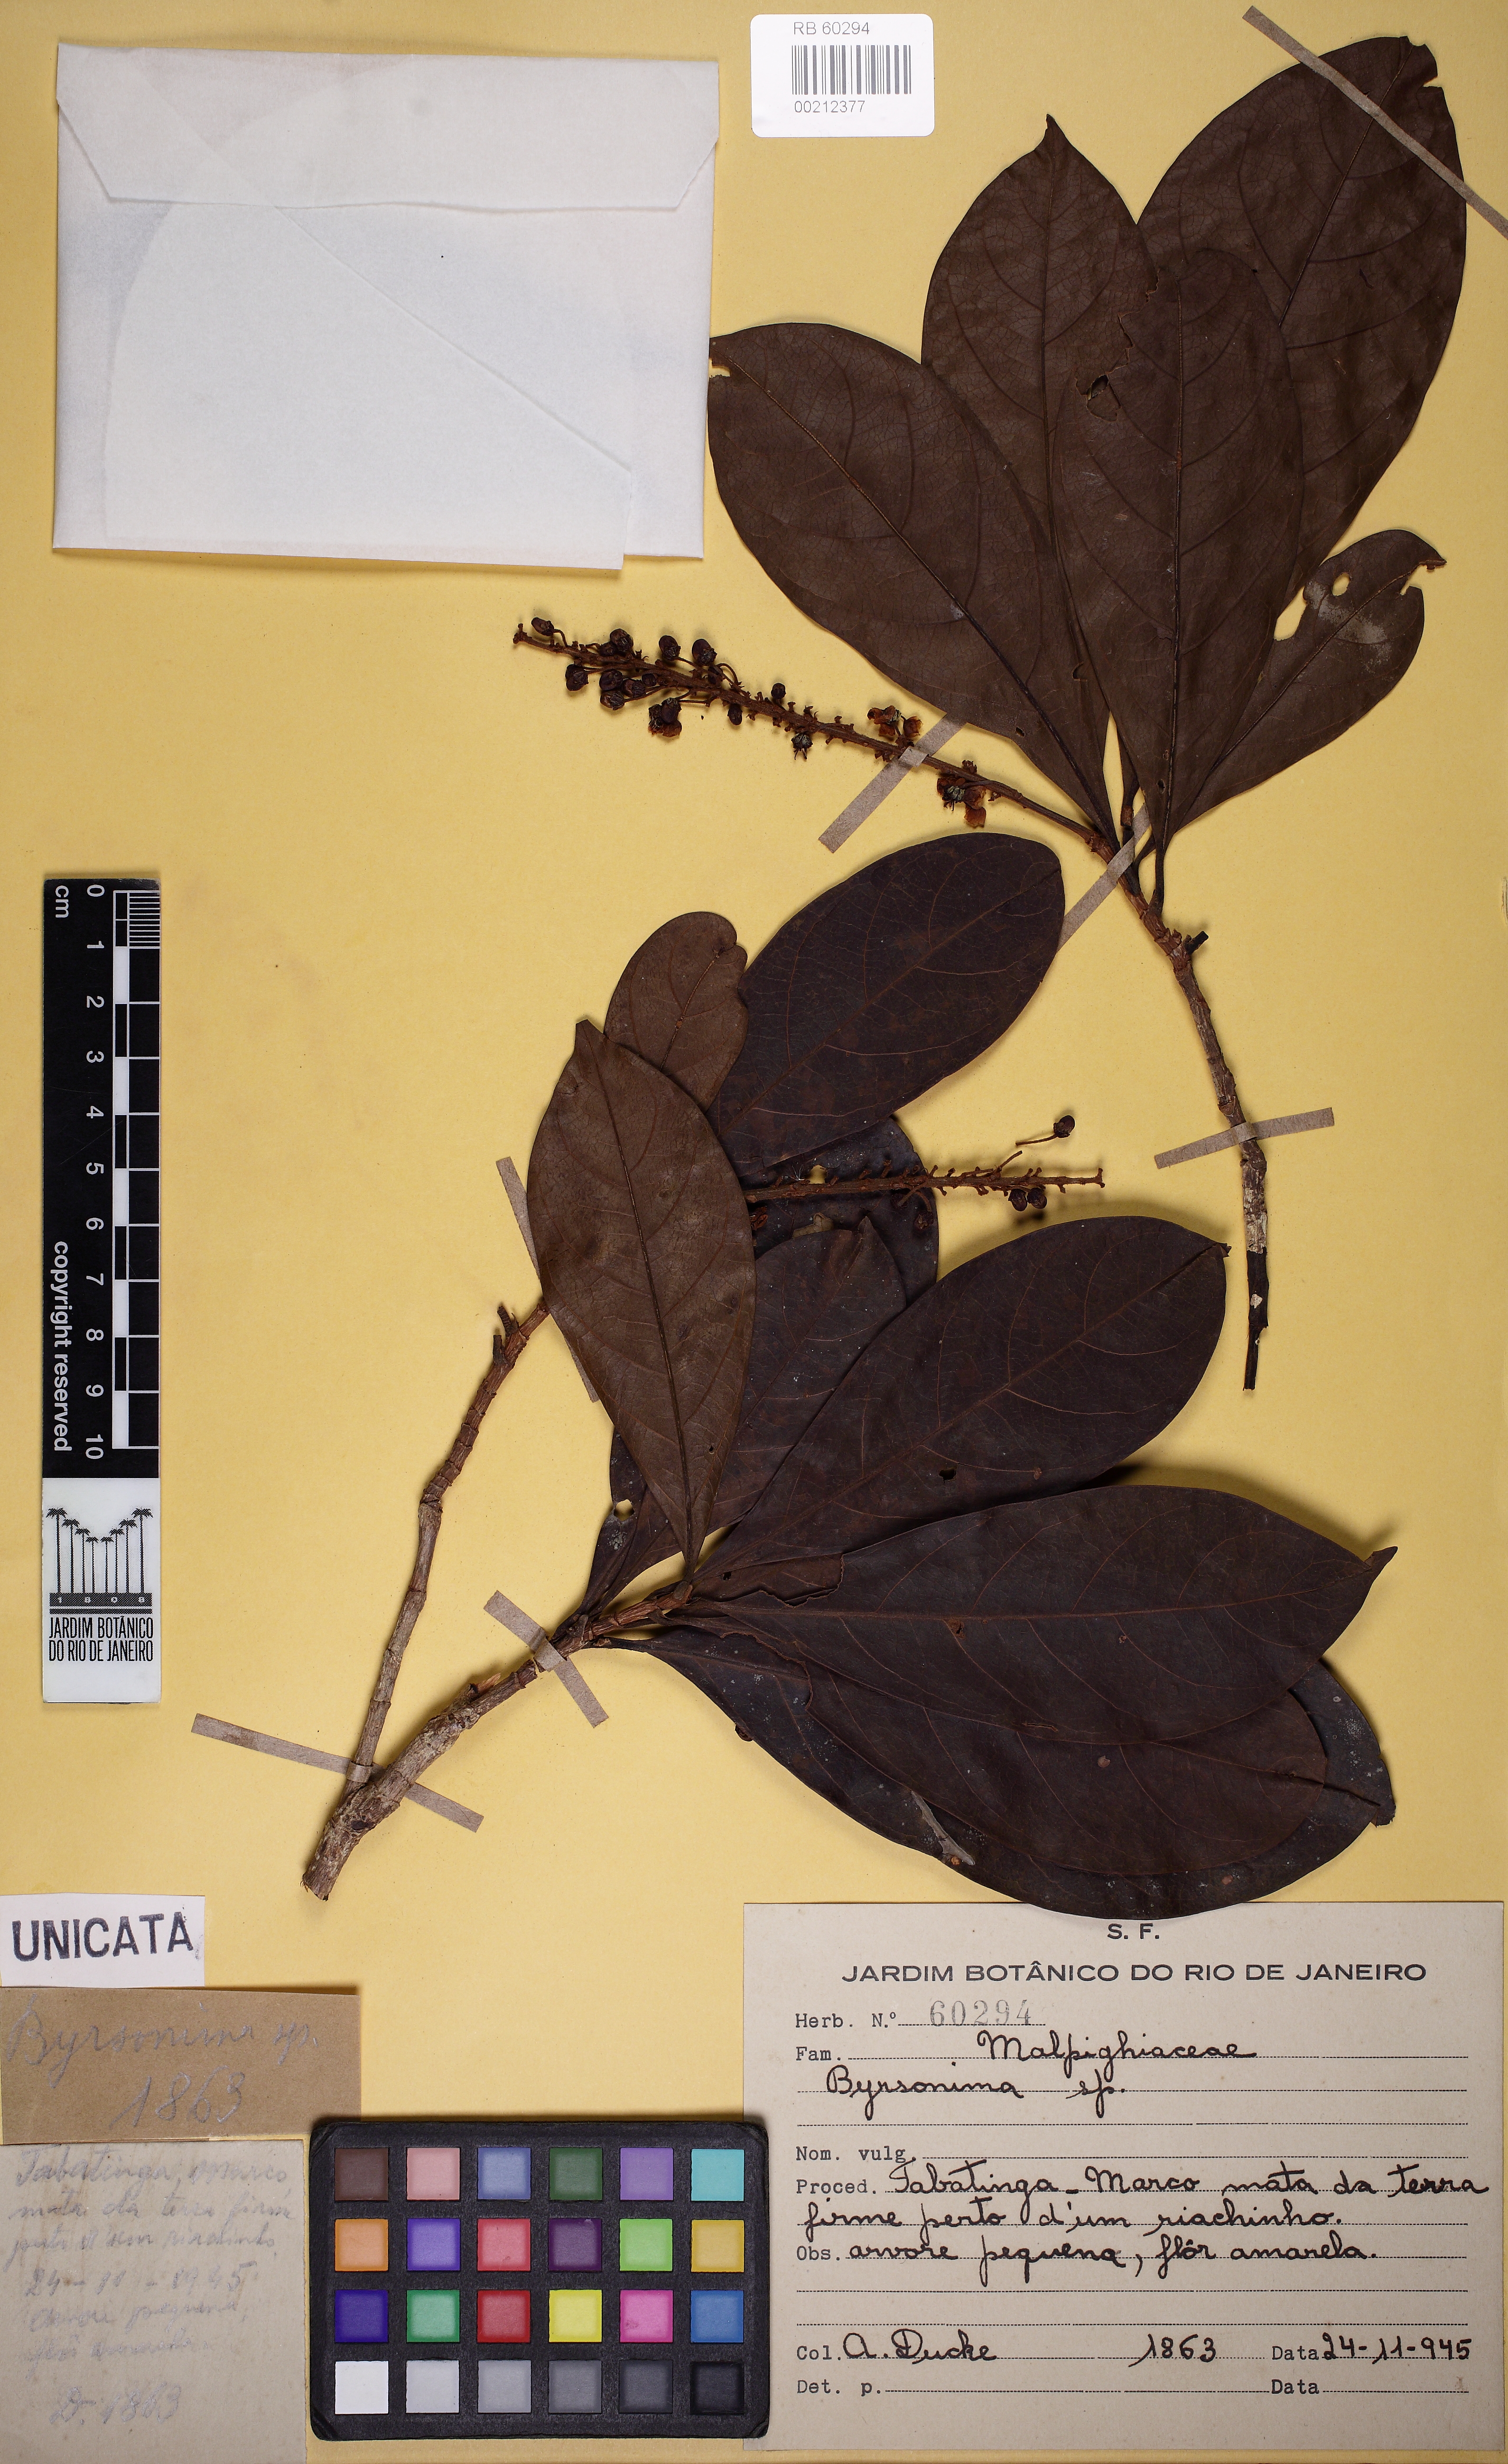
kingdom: Plantae
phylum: Tracheophyta
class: Magnoliopsida
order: Malpighiales
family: Malpighiaceae
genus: Byrsonima
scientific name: Byrsonima
